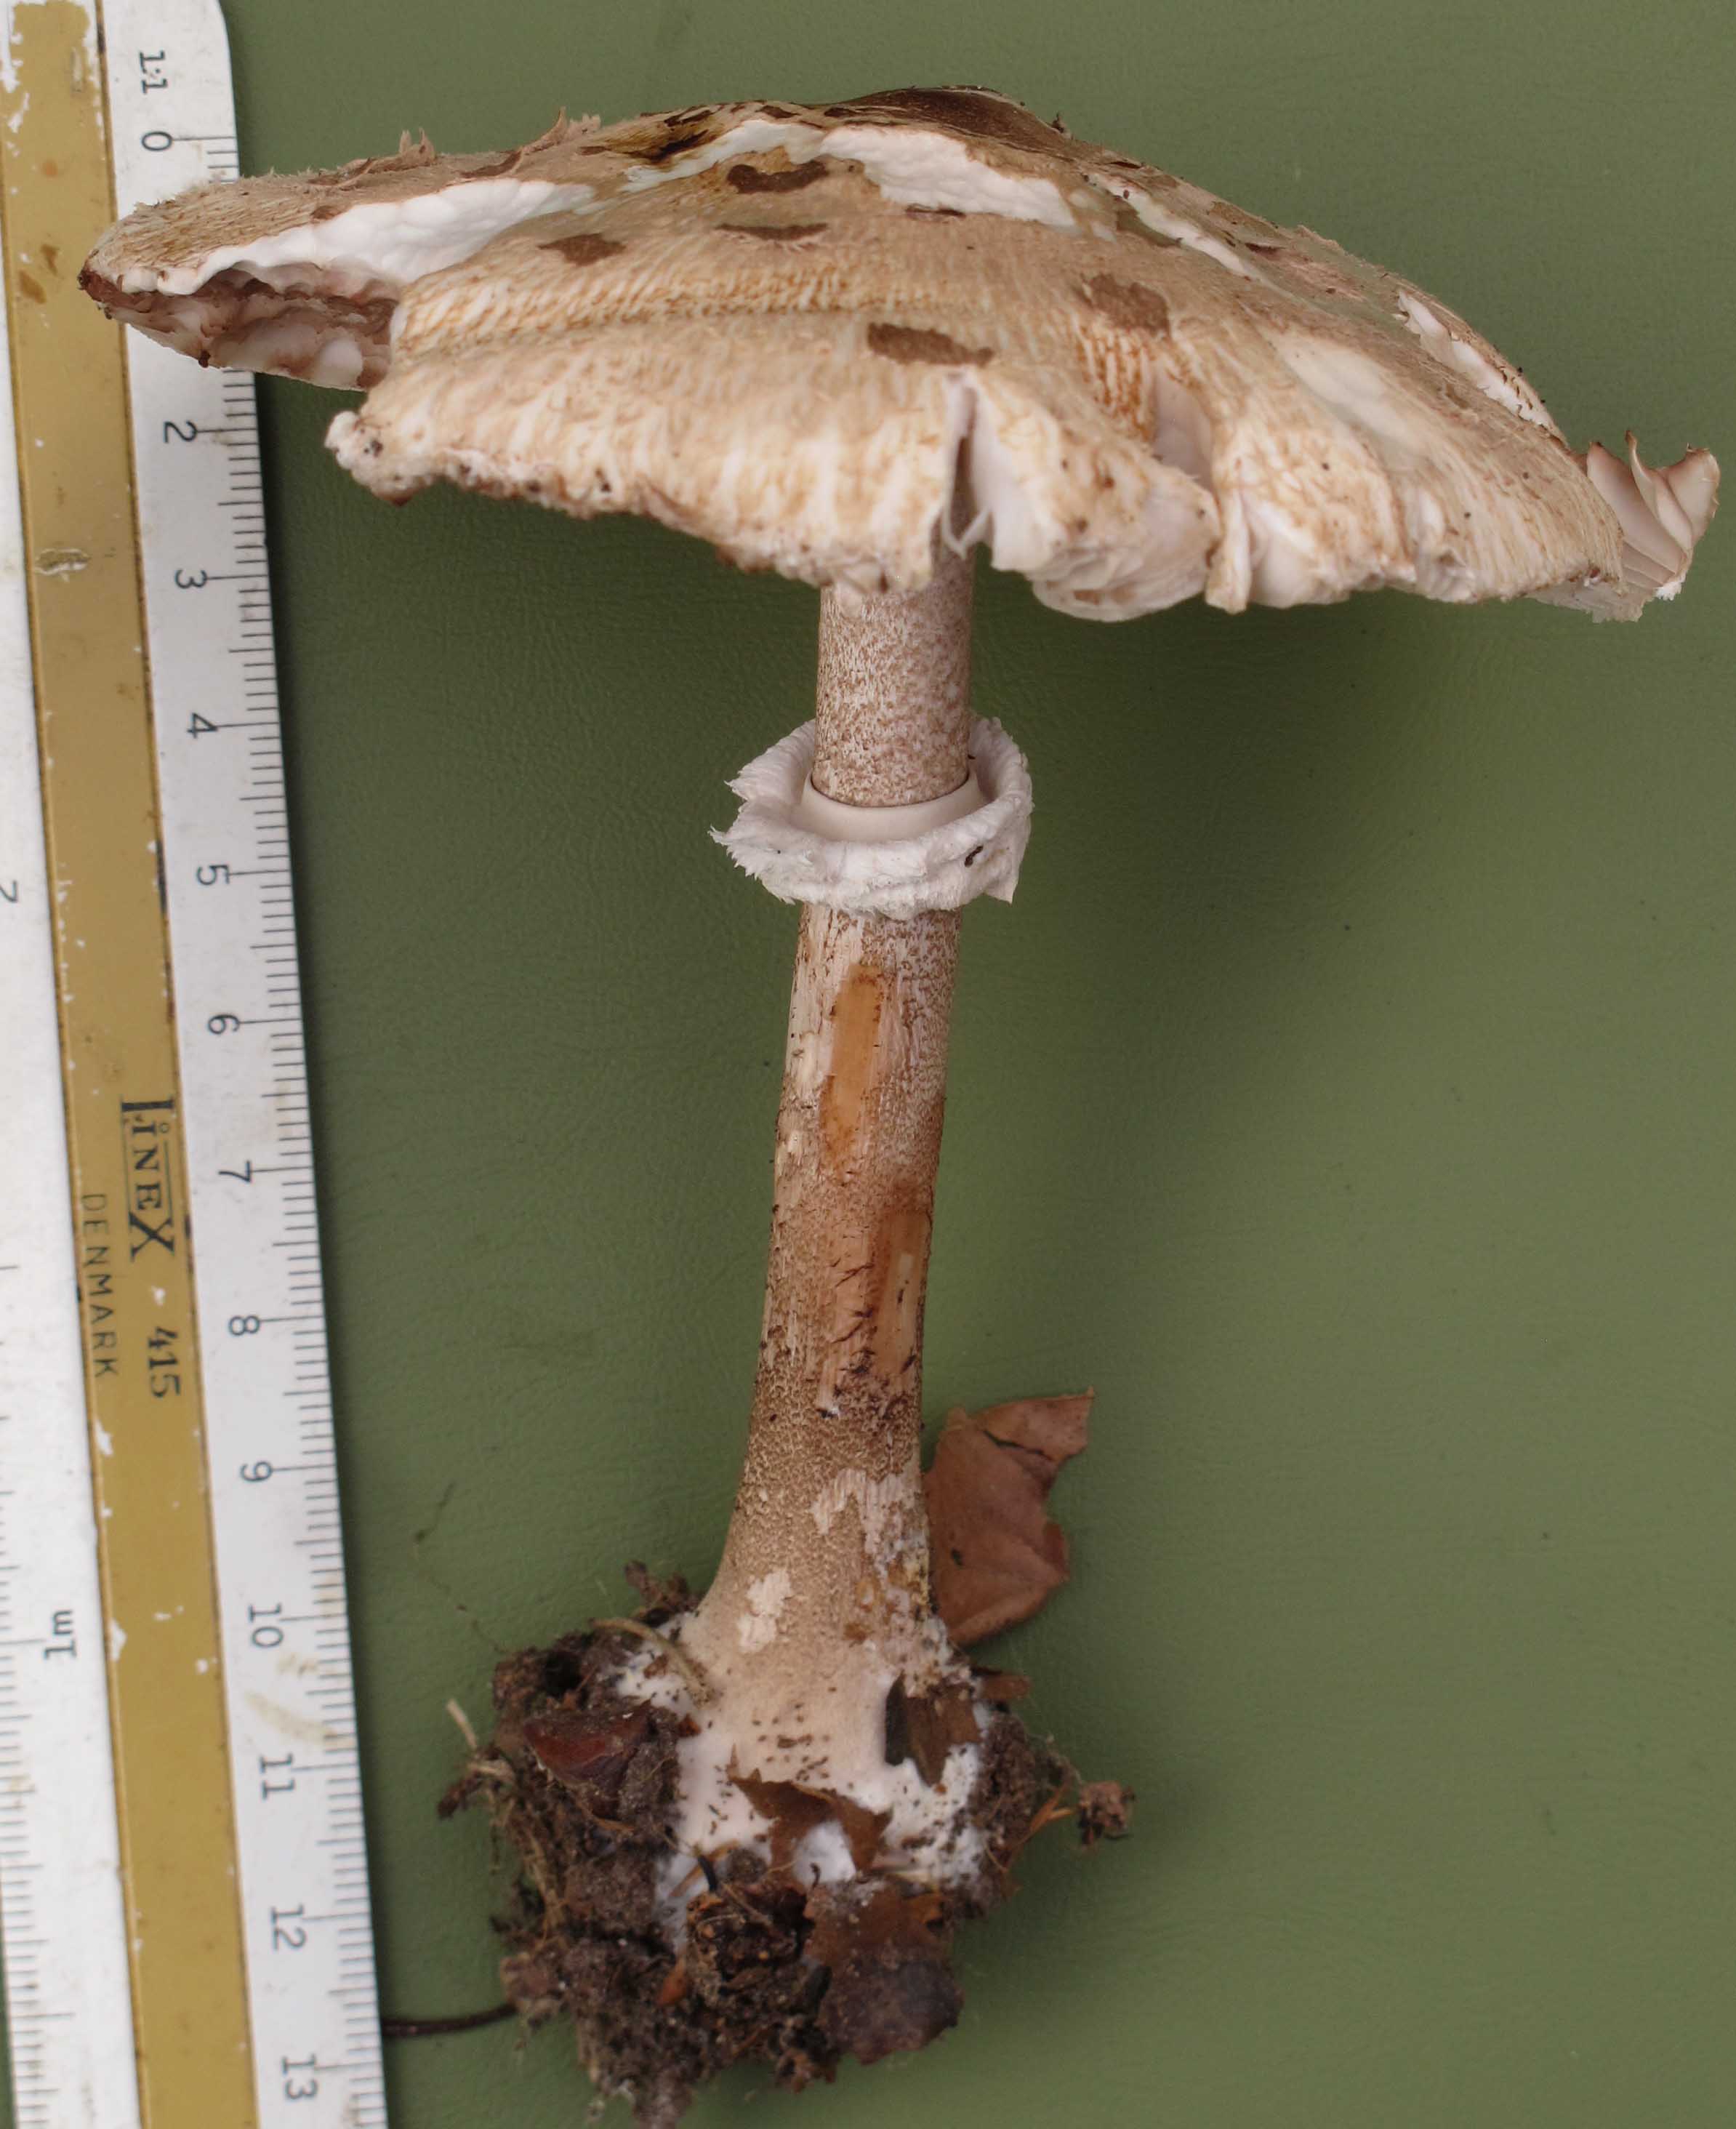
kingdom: Fungi
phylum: Basidiomycota
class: Agaricomycetes
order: Agaricales
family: Agaricaceae
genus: Macrolepiota
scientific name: Macrolepiota fuliginosa
